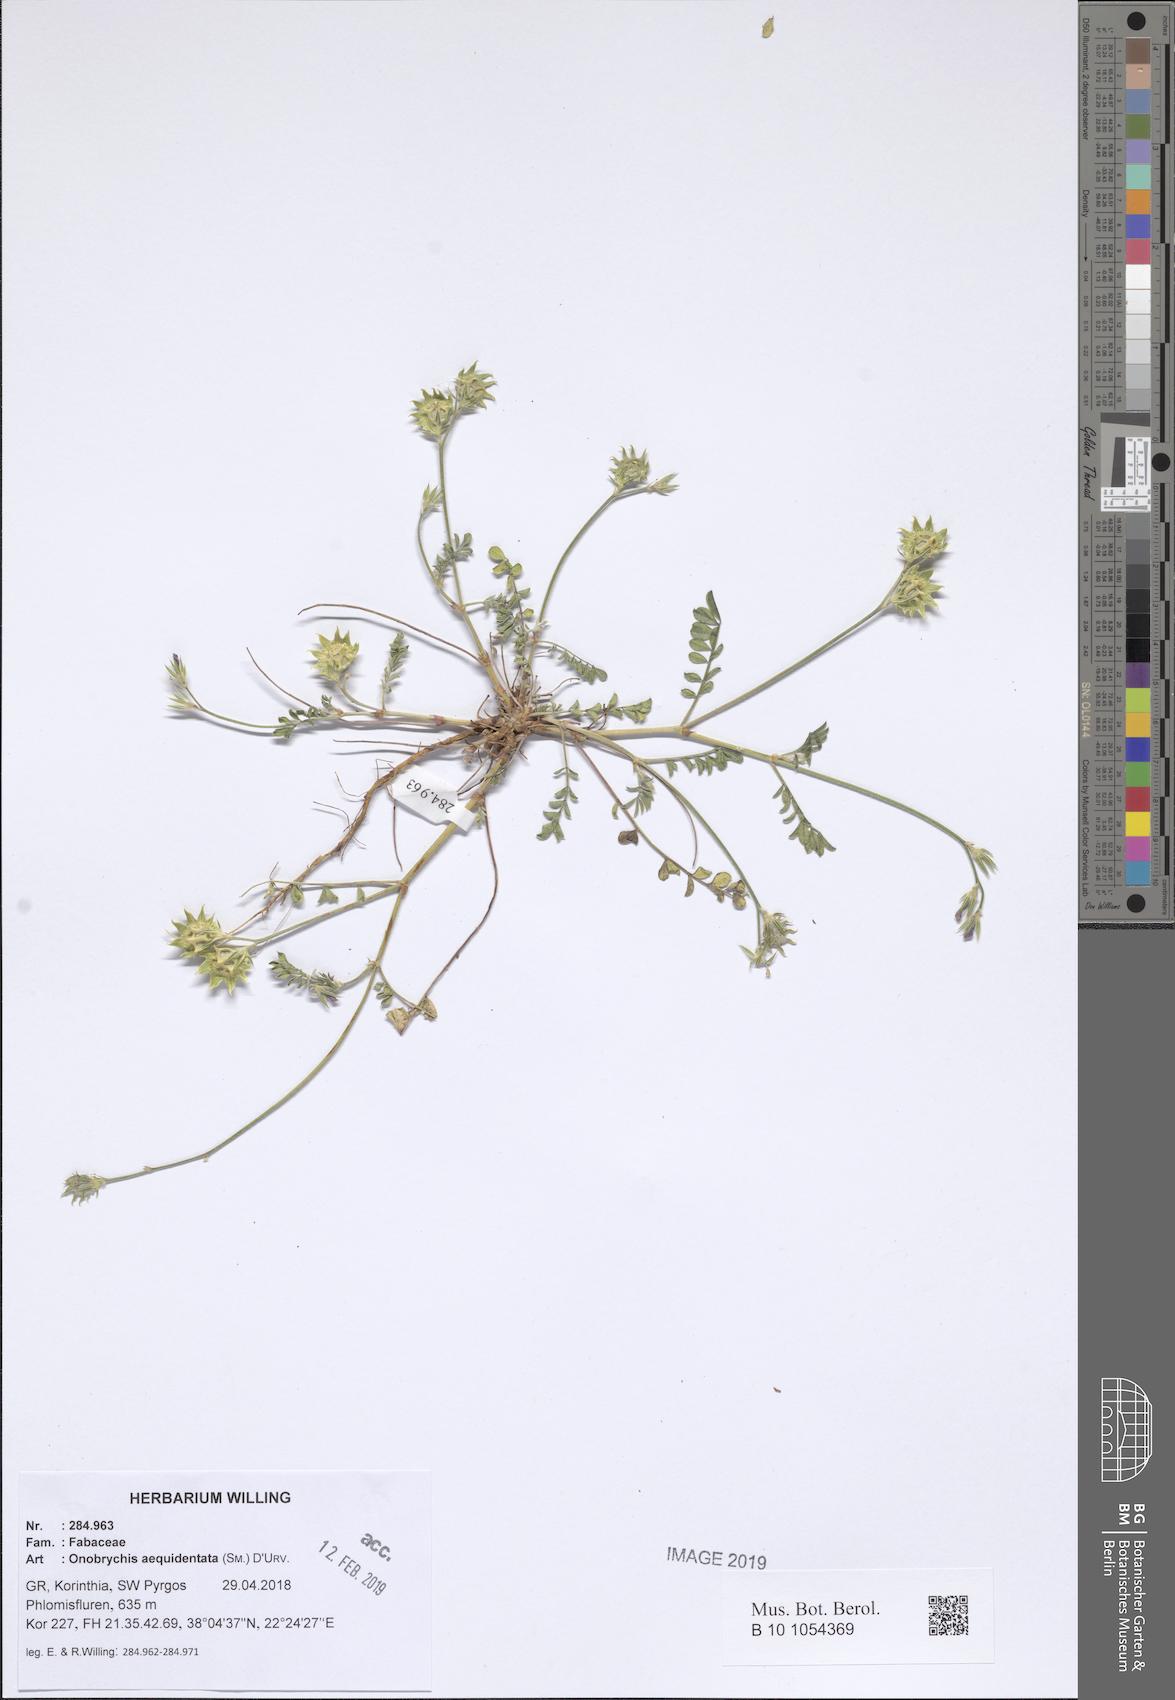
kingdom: Plantae
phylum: Tracheophyta
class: Magnoliopsida
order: Fabales
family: Fabaceae
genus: Onobrychis
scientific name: Onobrychis aequidentata
